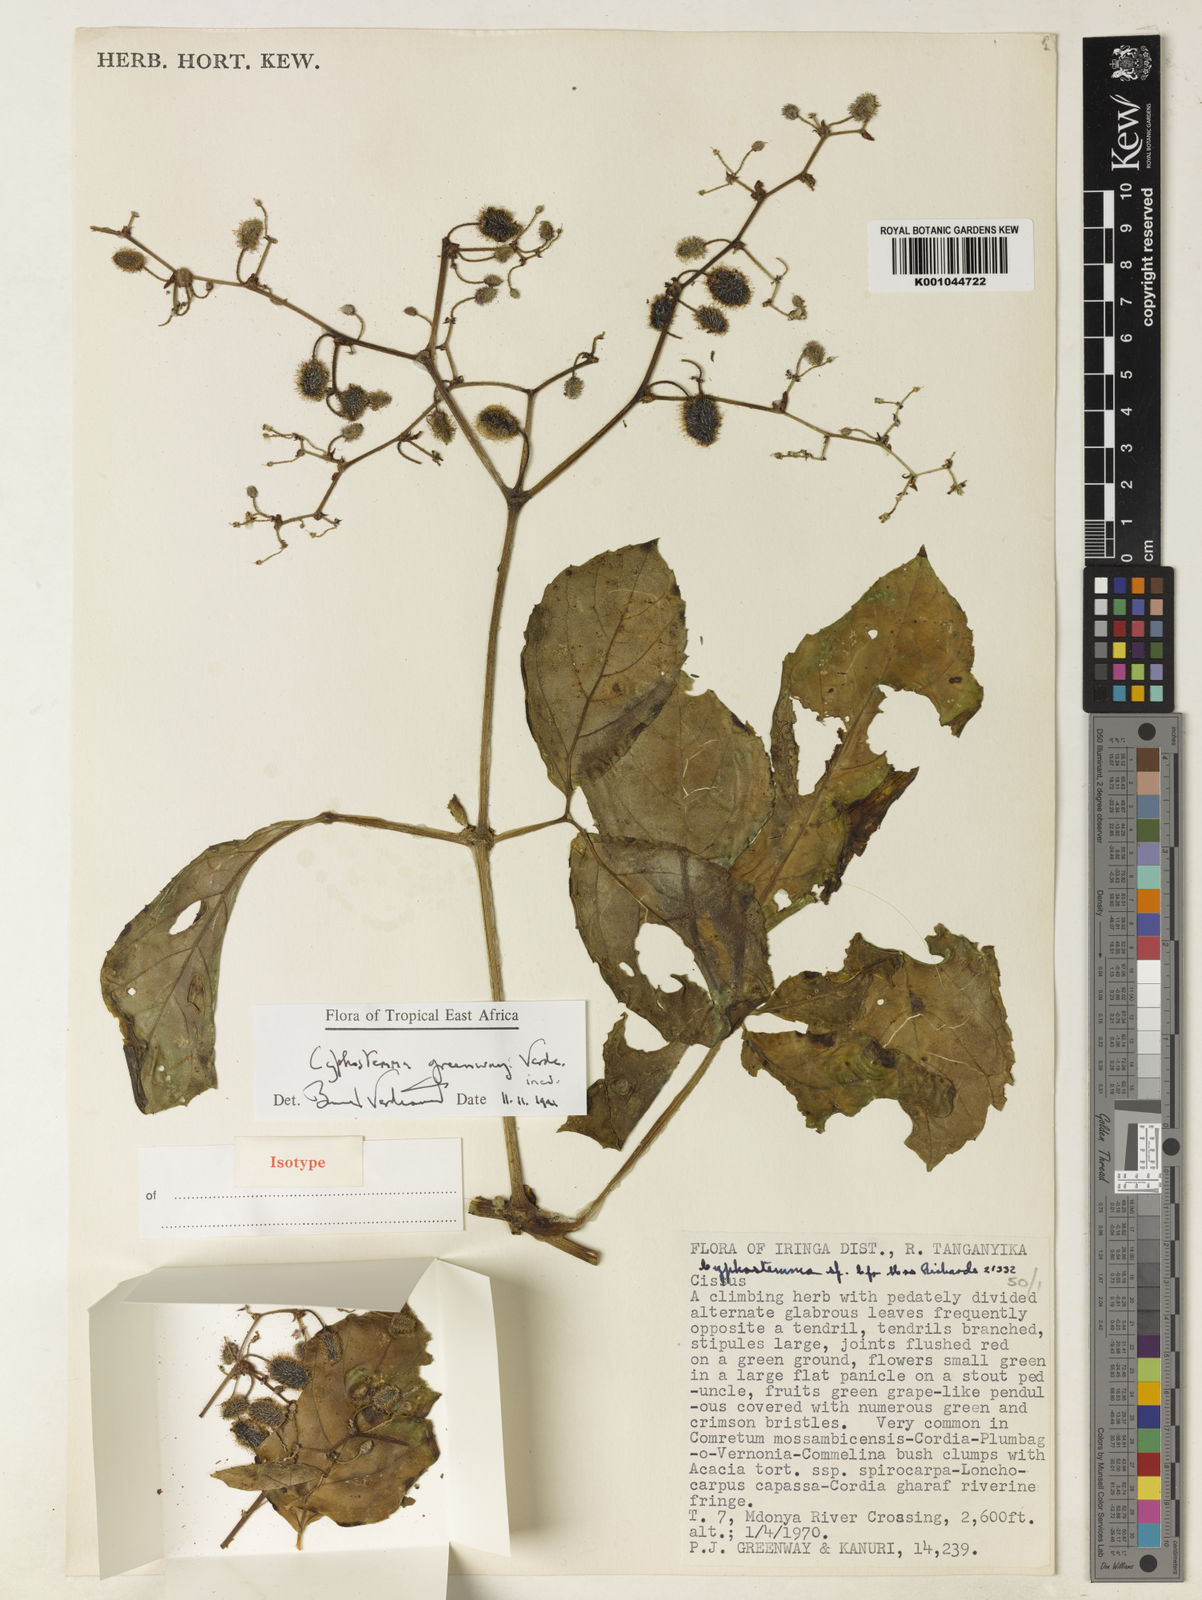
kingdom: Plantae
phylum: Tracheophyta
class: Magnoliopsida
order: Vitales
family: Vitaceae
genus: Cyphostemma
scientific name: Cyphostemma greenwayi
